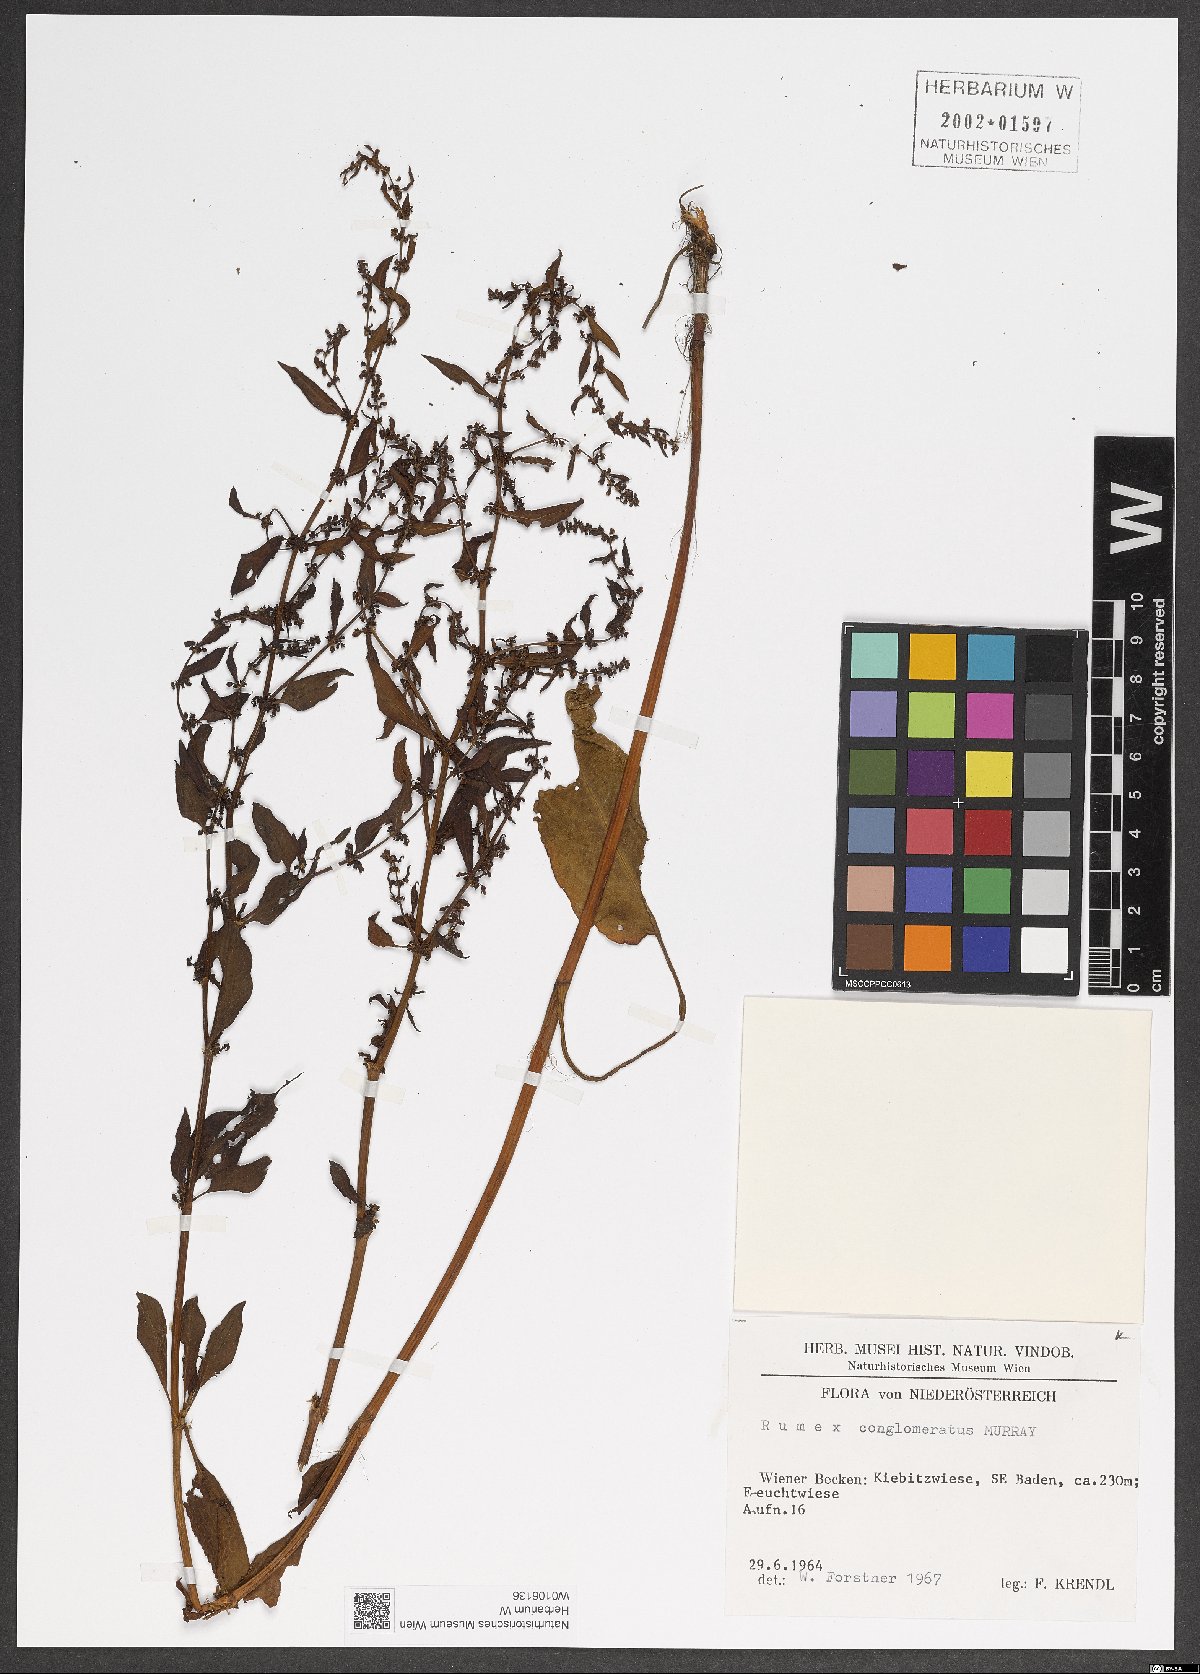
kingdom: Plantae
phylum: Tracheophyta
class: Magnoliopsida
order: Caryophyllales
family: Polygonaceae
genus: Rumex
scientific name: Rumex conglomeratus
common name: Clustered dock
